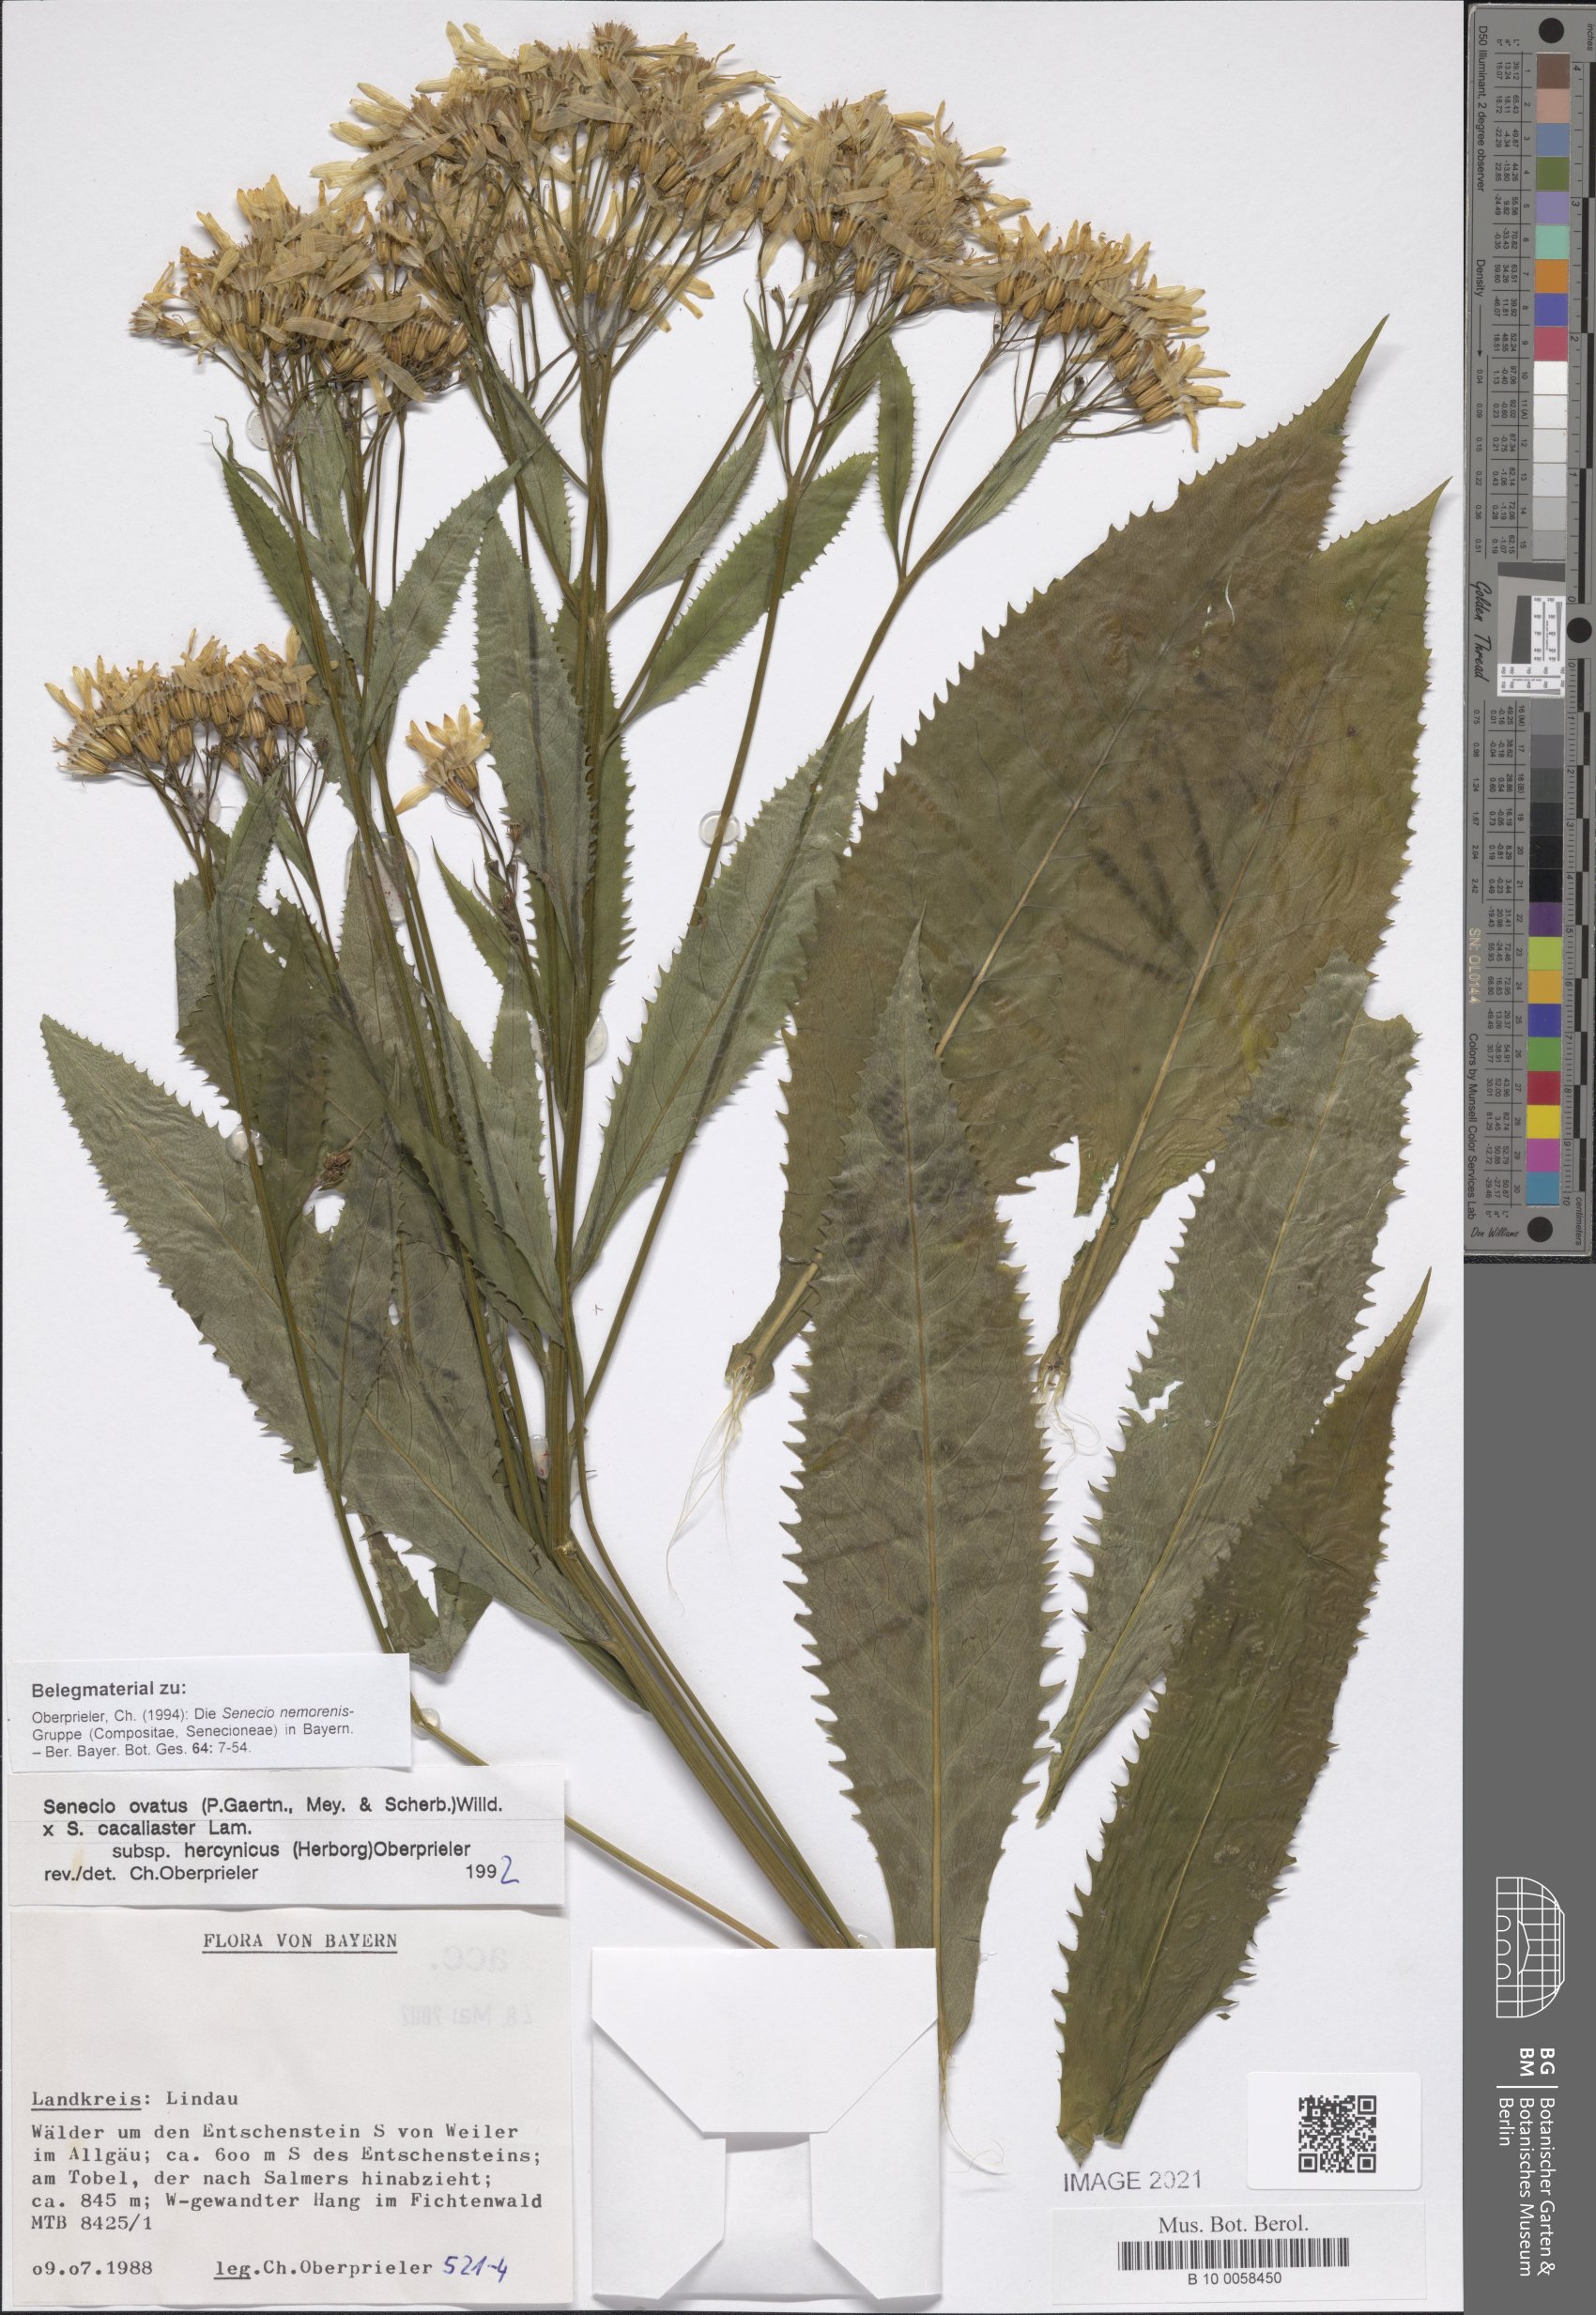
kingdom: Plantae
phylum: Tracheophyta
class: Magnoliopsida
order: Asterales
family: Asteraceae
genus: Senecio
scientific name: Senecio ovatus
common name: Wood ragwort
